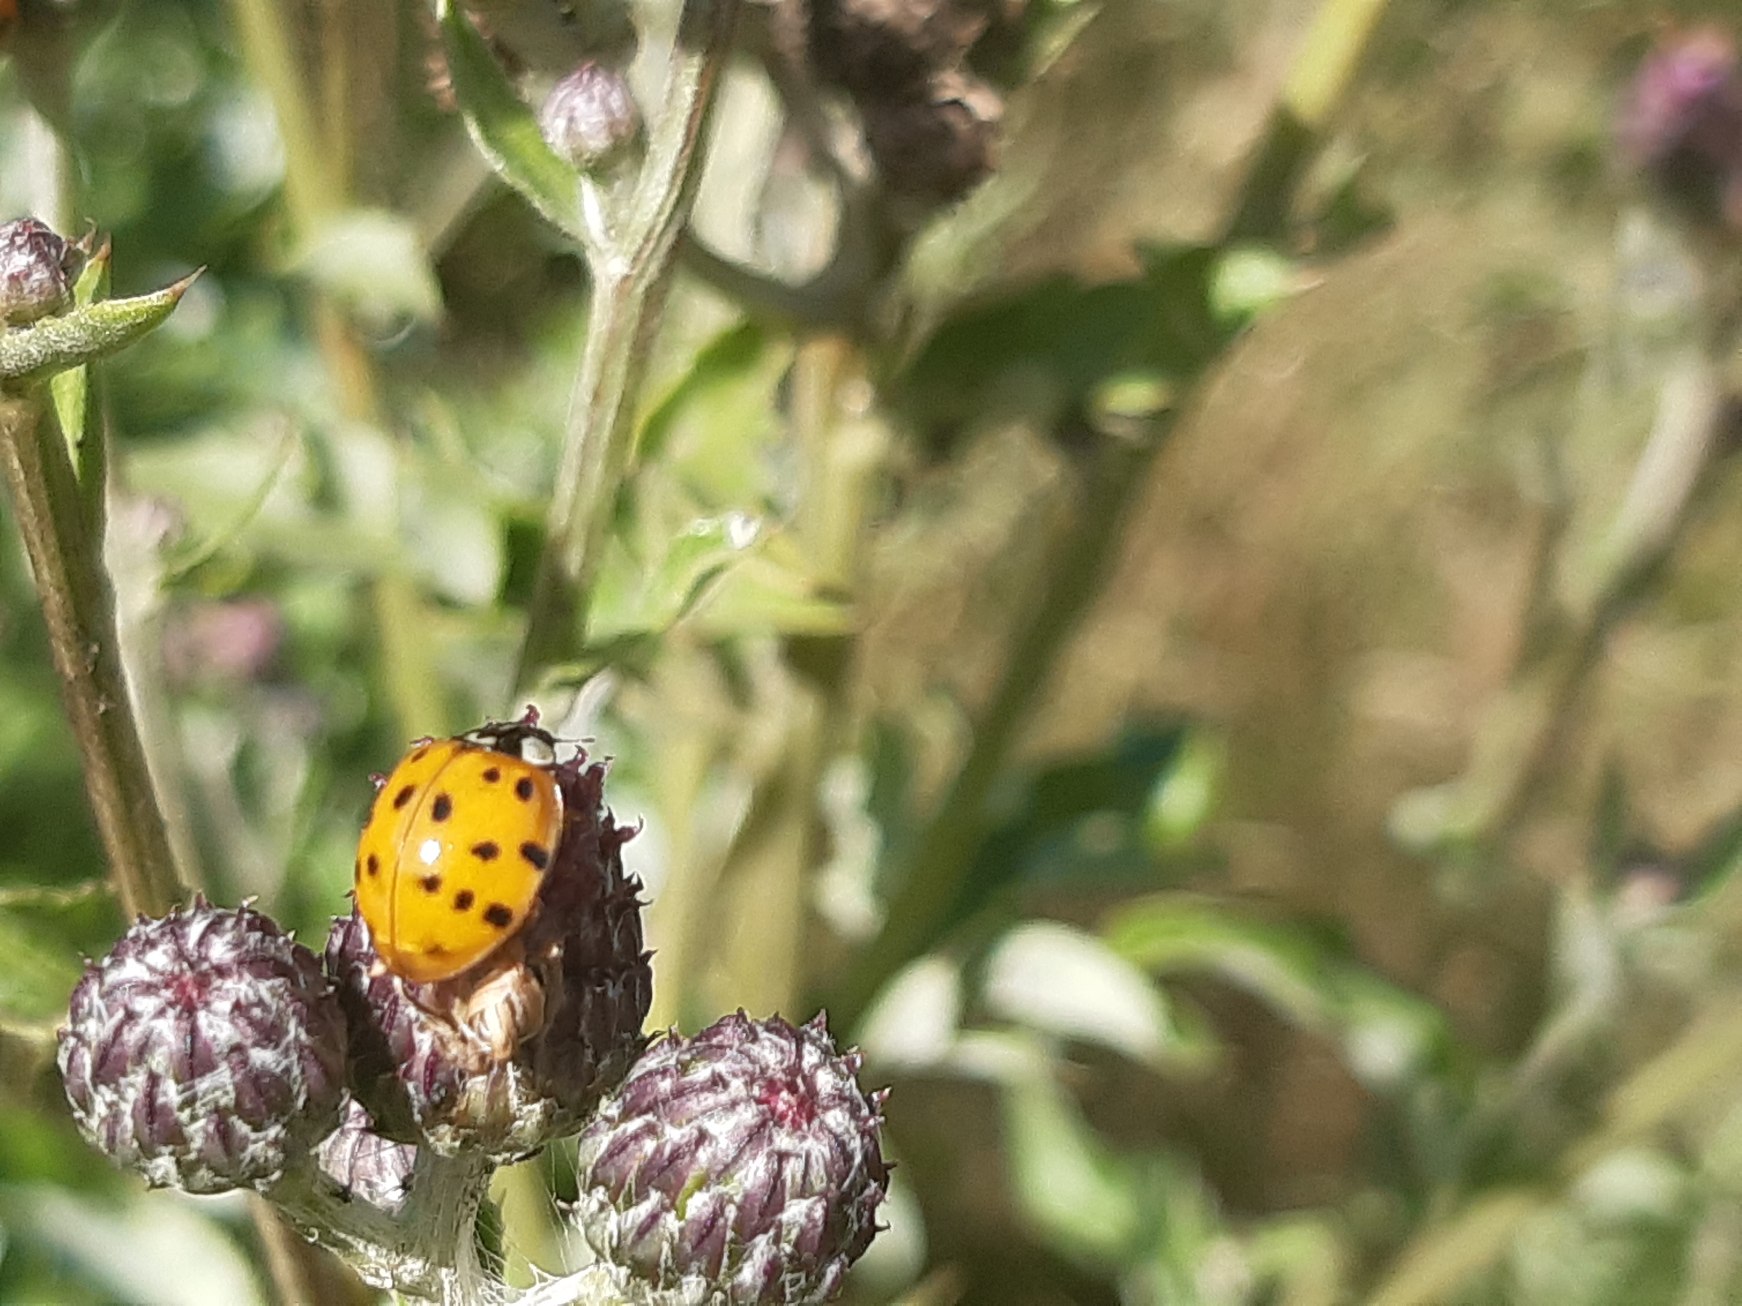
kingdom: Animalia
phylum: Arthropoda
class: Insecta
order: Coleoptera
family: Coccinellidae
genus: Harmonia
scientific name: Harmonia axyridis
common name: Harlekinmariehøne
